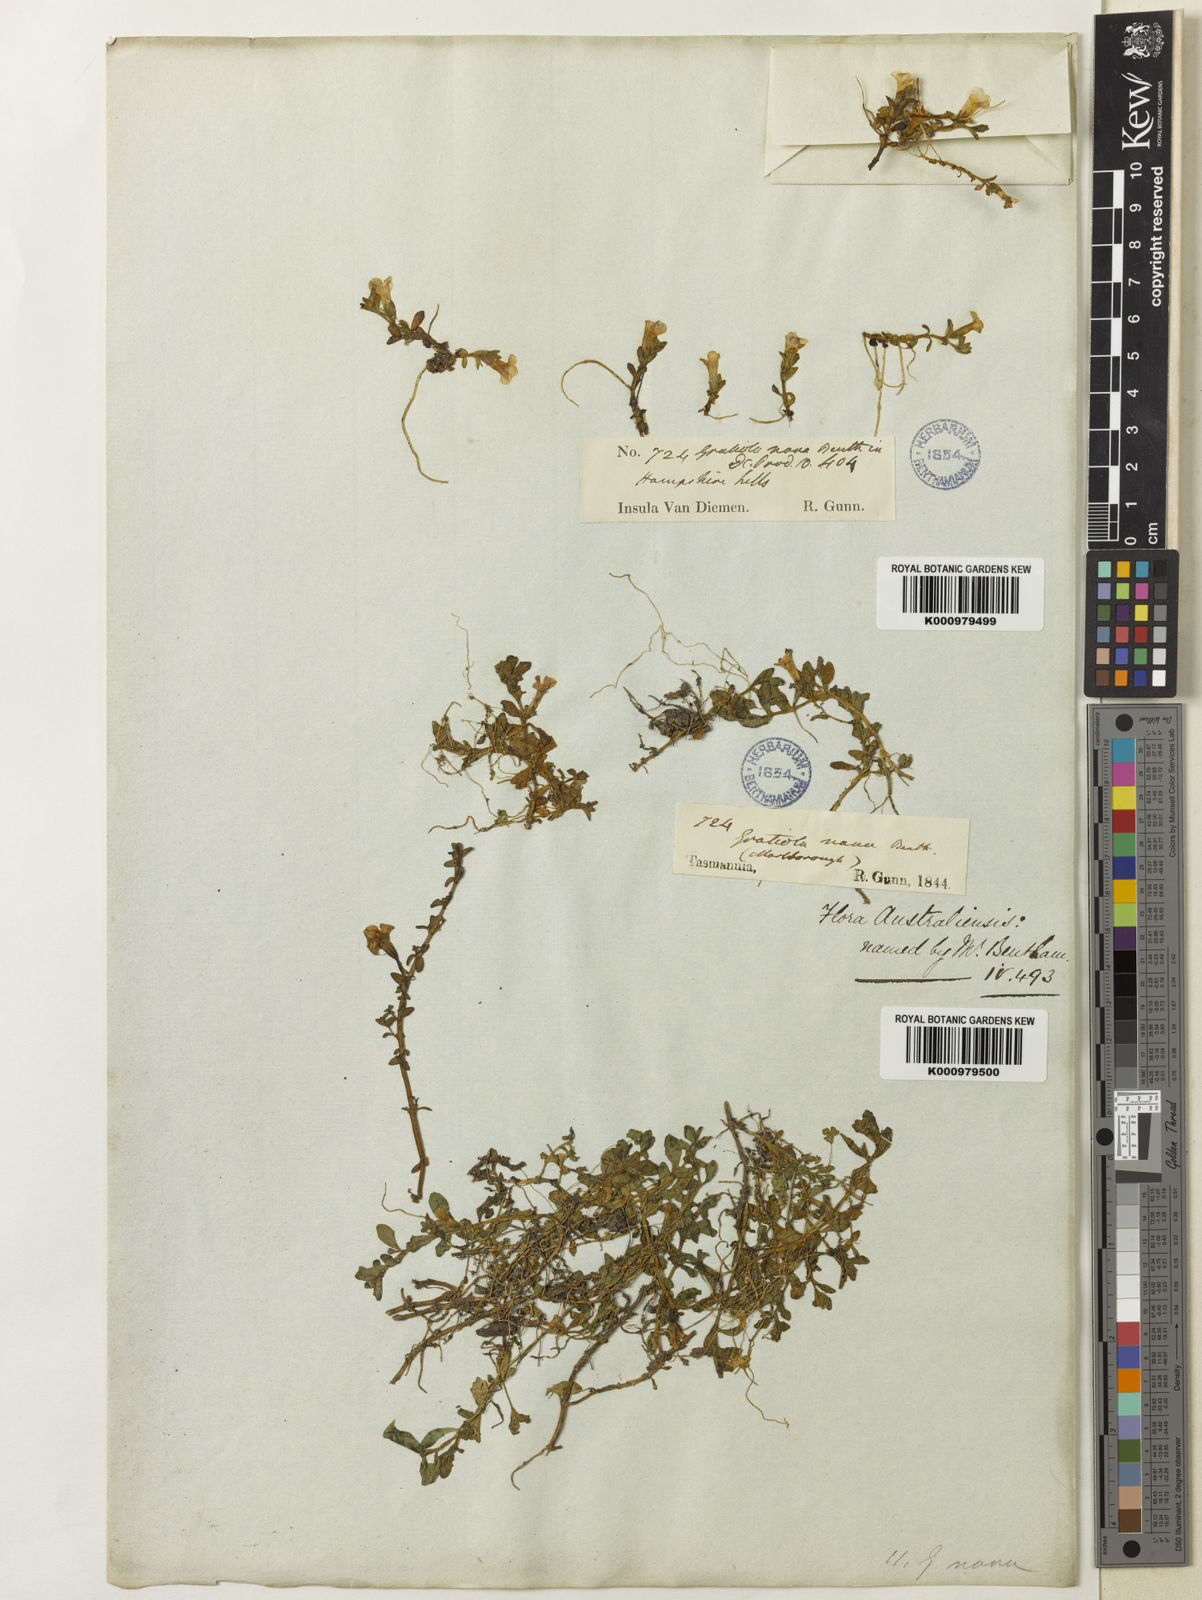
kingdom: Plantae
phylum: Tracheophyta
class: Magnoliopsida
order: Lamiales
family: Plantaginaceae
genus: Gratiola
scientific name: Gratiola nana
